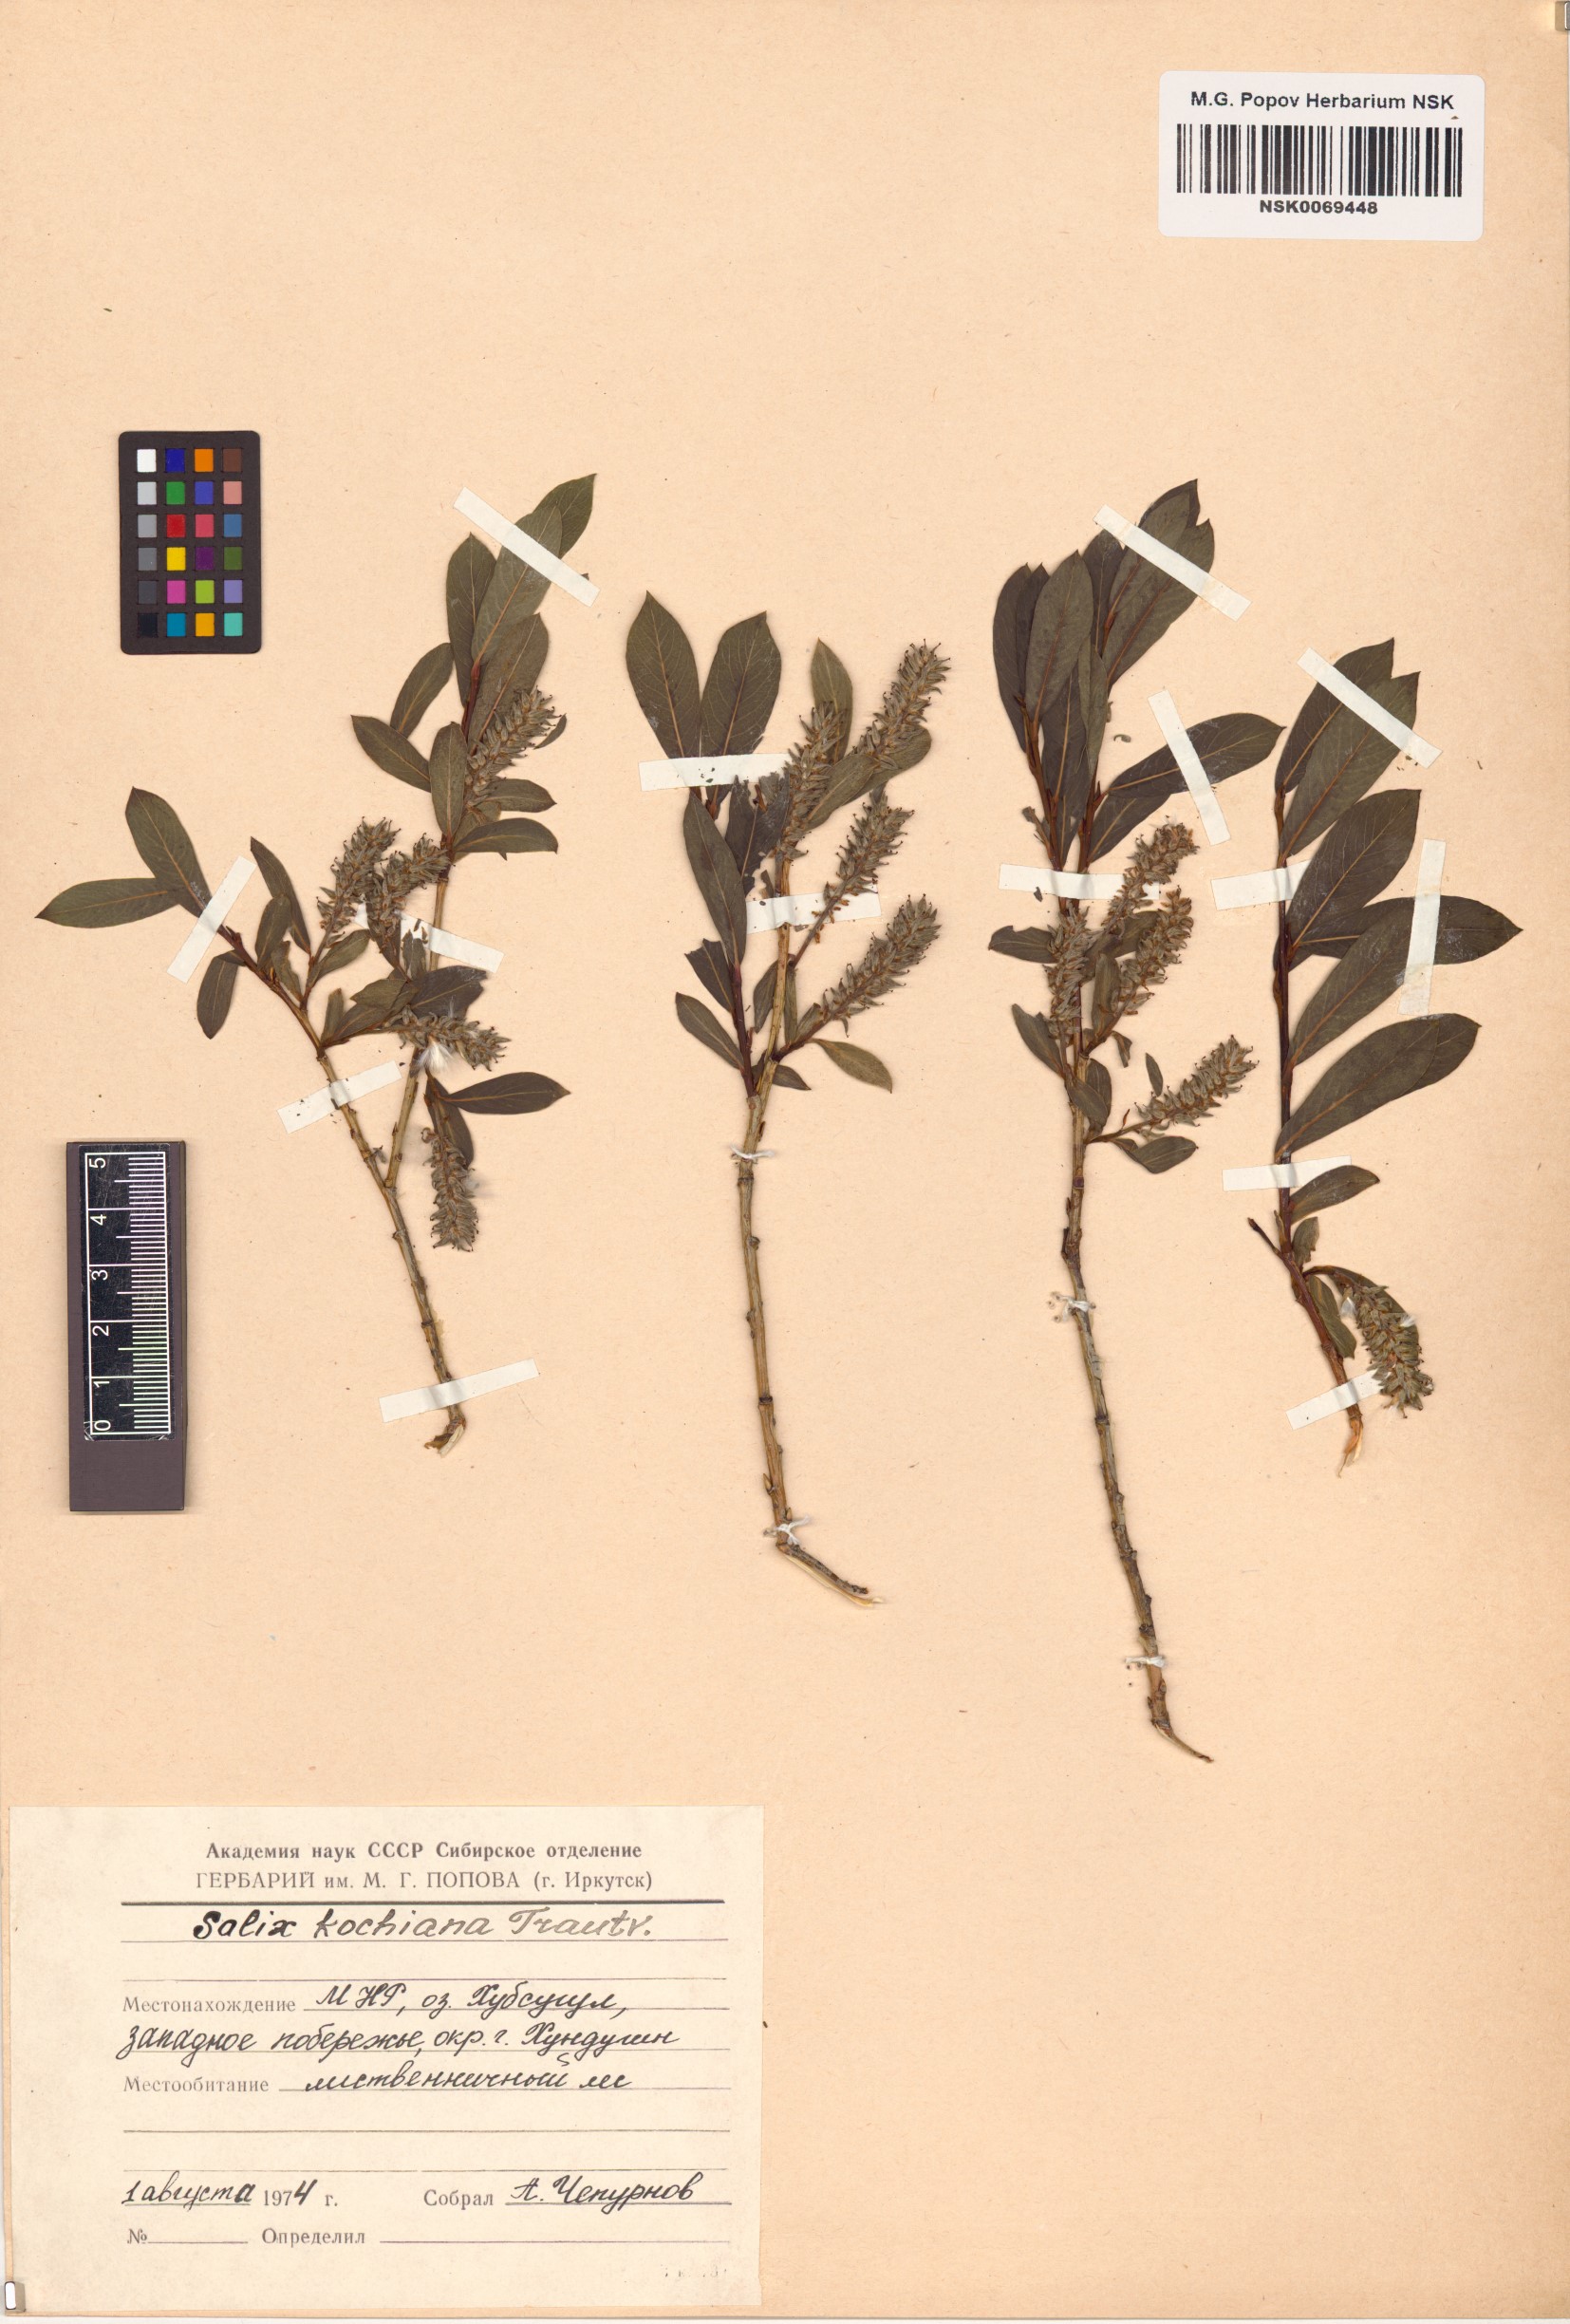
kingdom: Plantae
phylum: Tracheophyta
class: Magnoliopsida
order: Malpighiales
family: Salicaceae
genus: Salix
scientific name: Salix kochiana
